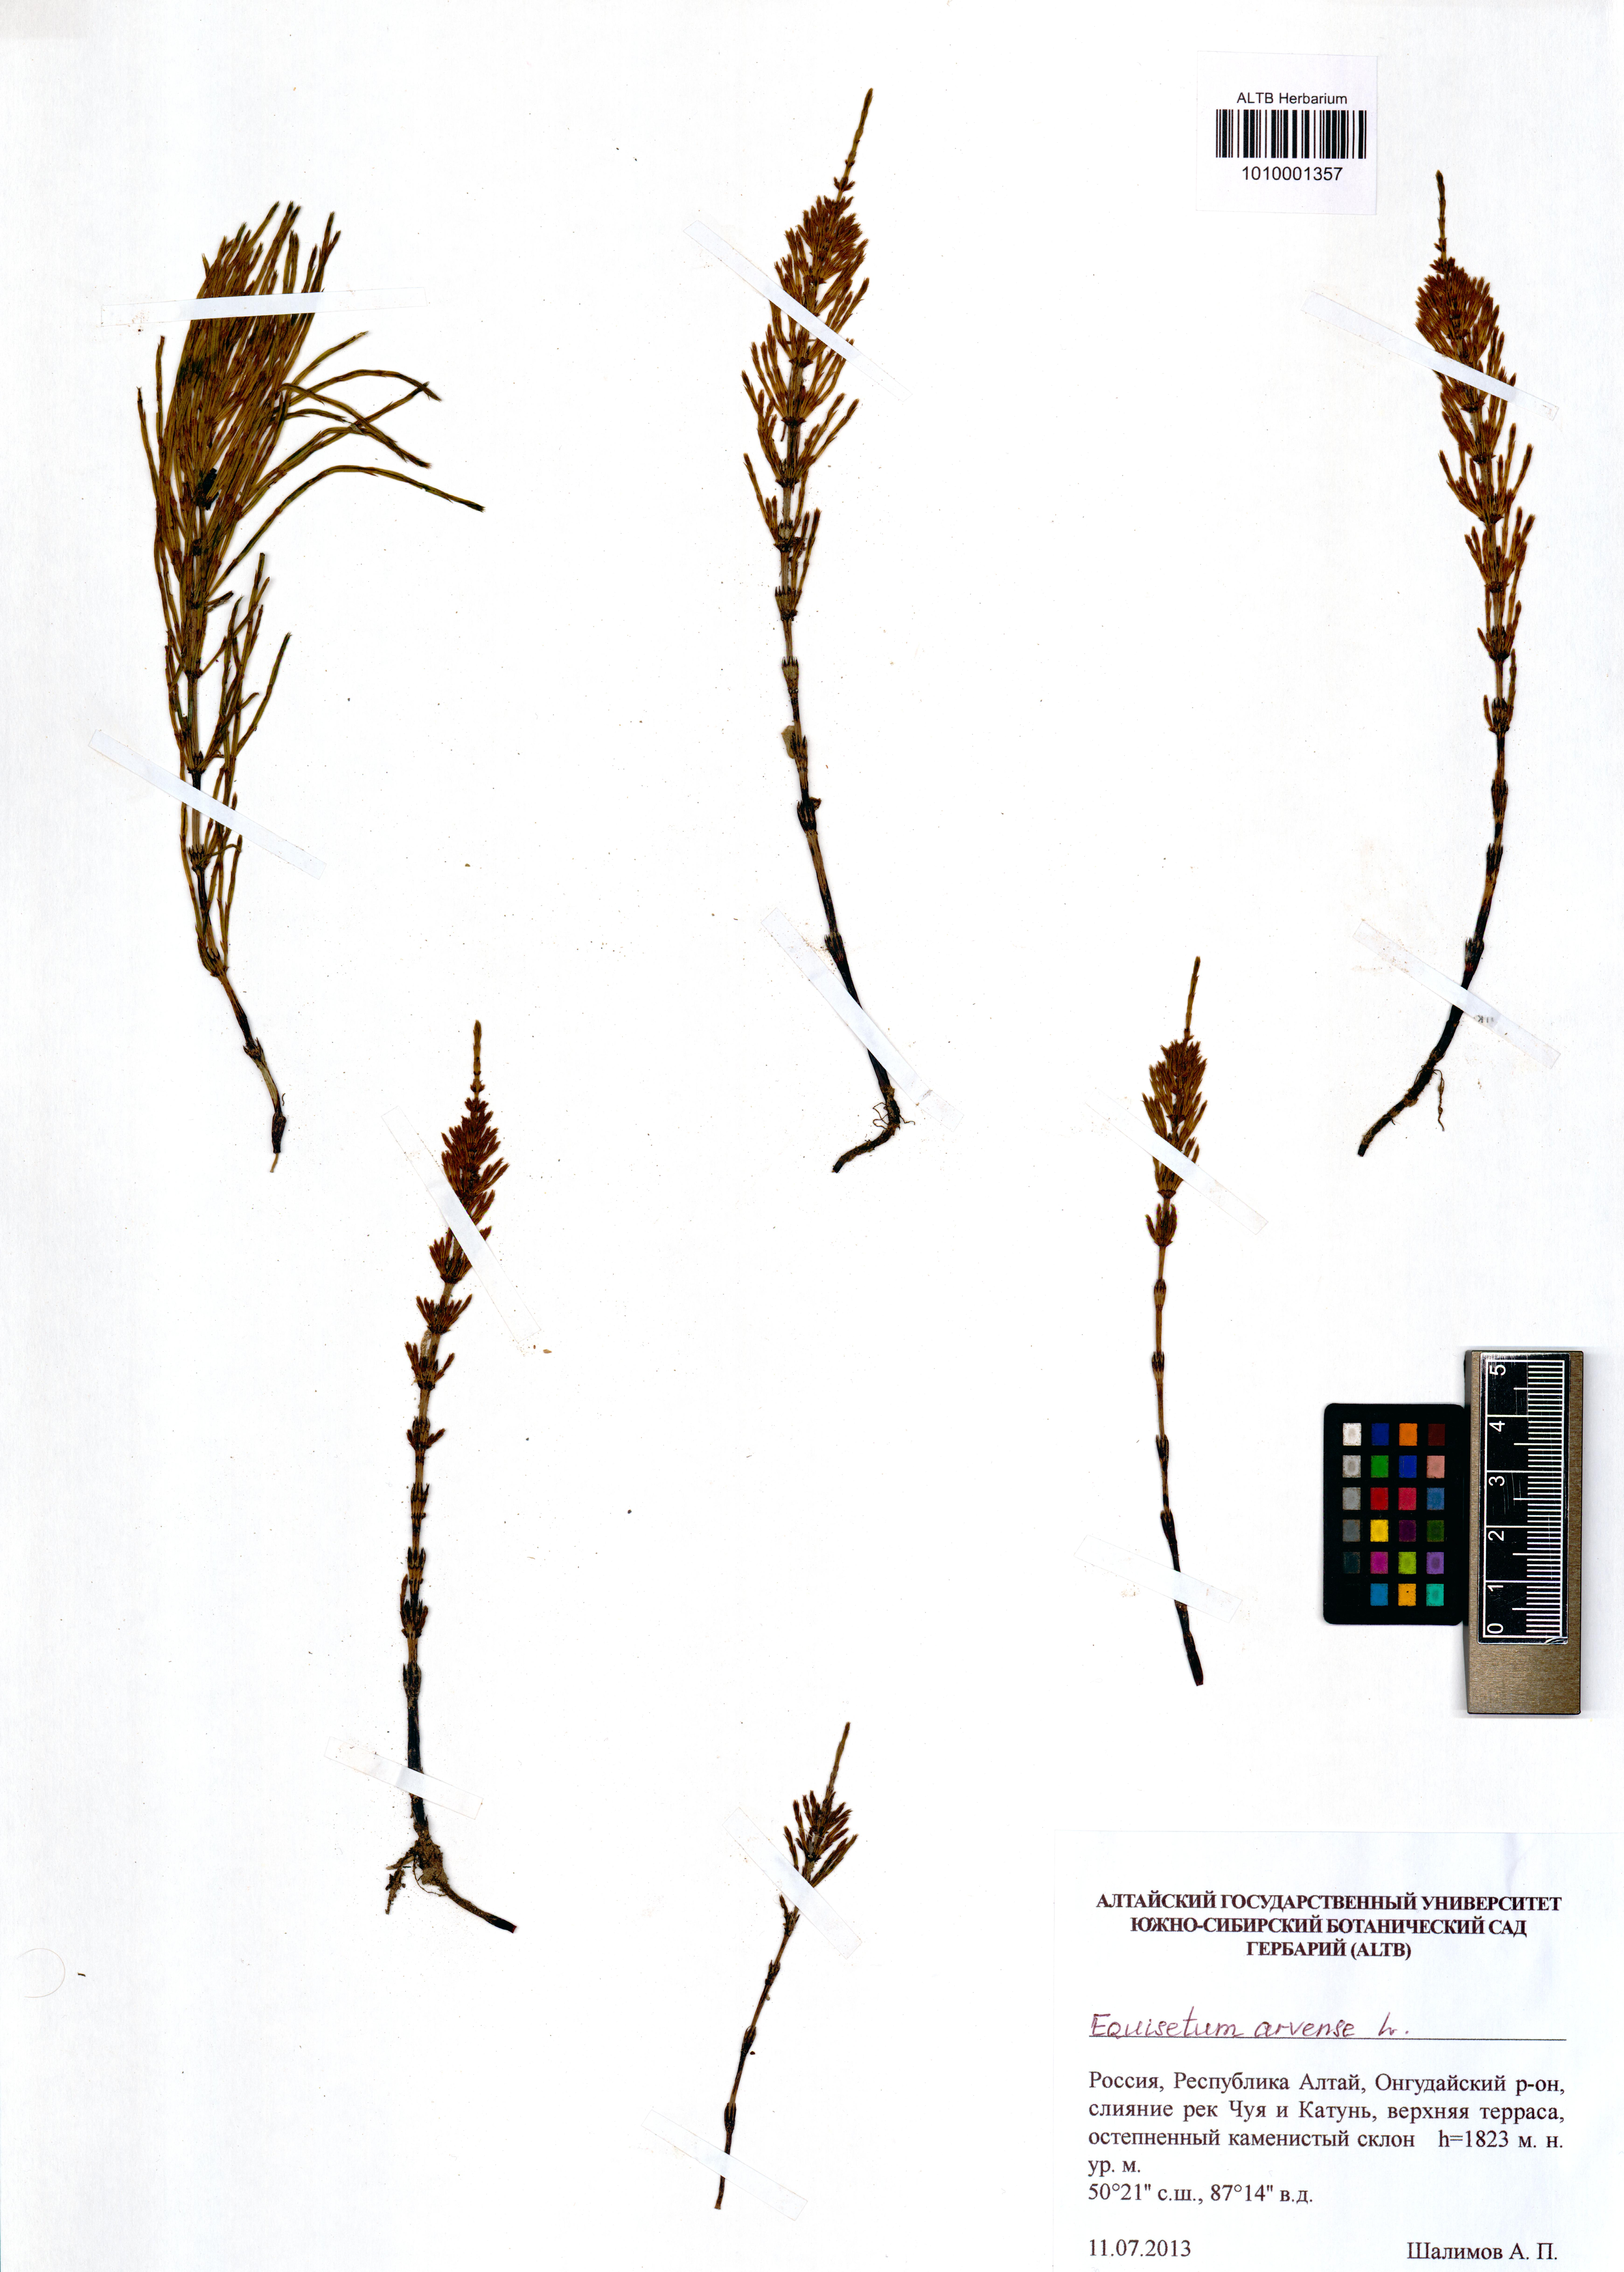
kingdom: Plantae
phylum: Tracheophyta
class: Polypodiopsida
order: Equisetales
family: Equisetaceae
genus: Equisetum
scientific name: Equisetum arvense
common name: Field horsetail
